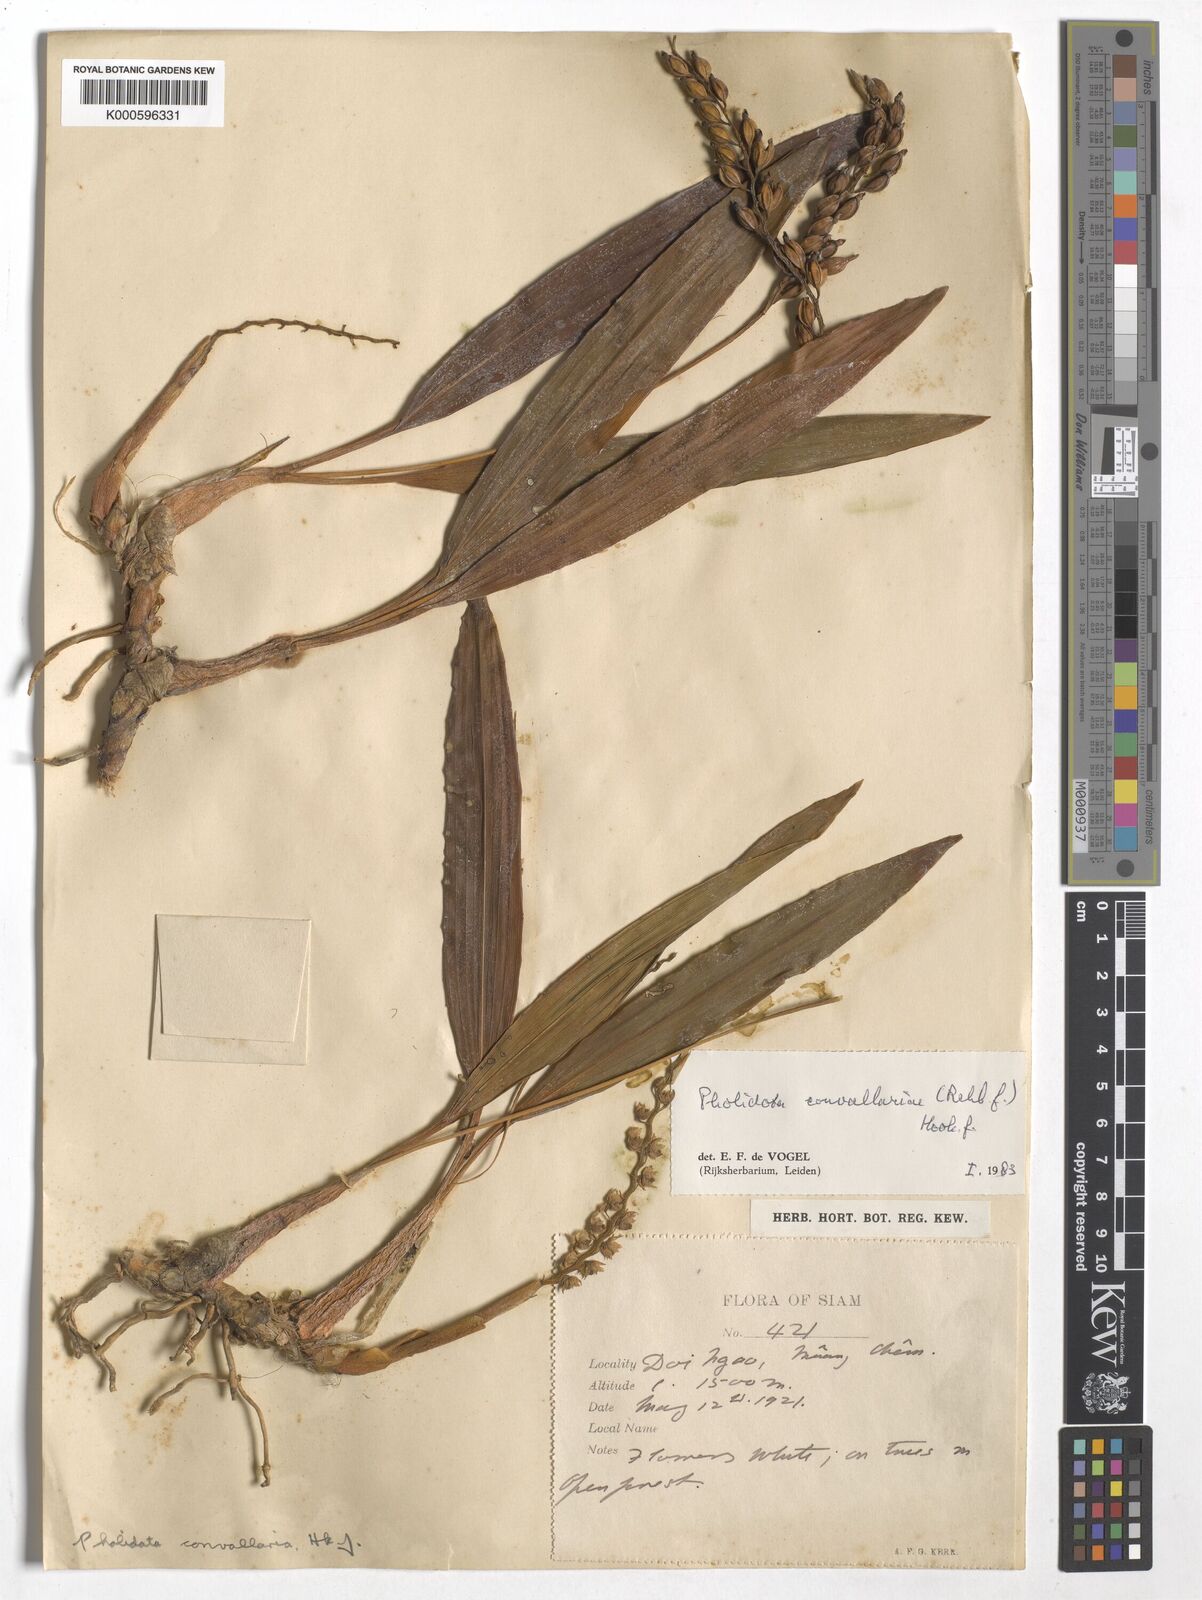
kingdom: Plantae
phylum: Tracheophyta
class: Liliopsida
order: Asparagales
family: Orchidaceae
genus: Coelogyne
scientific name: Coelogyne convallariae
